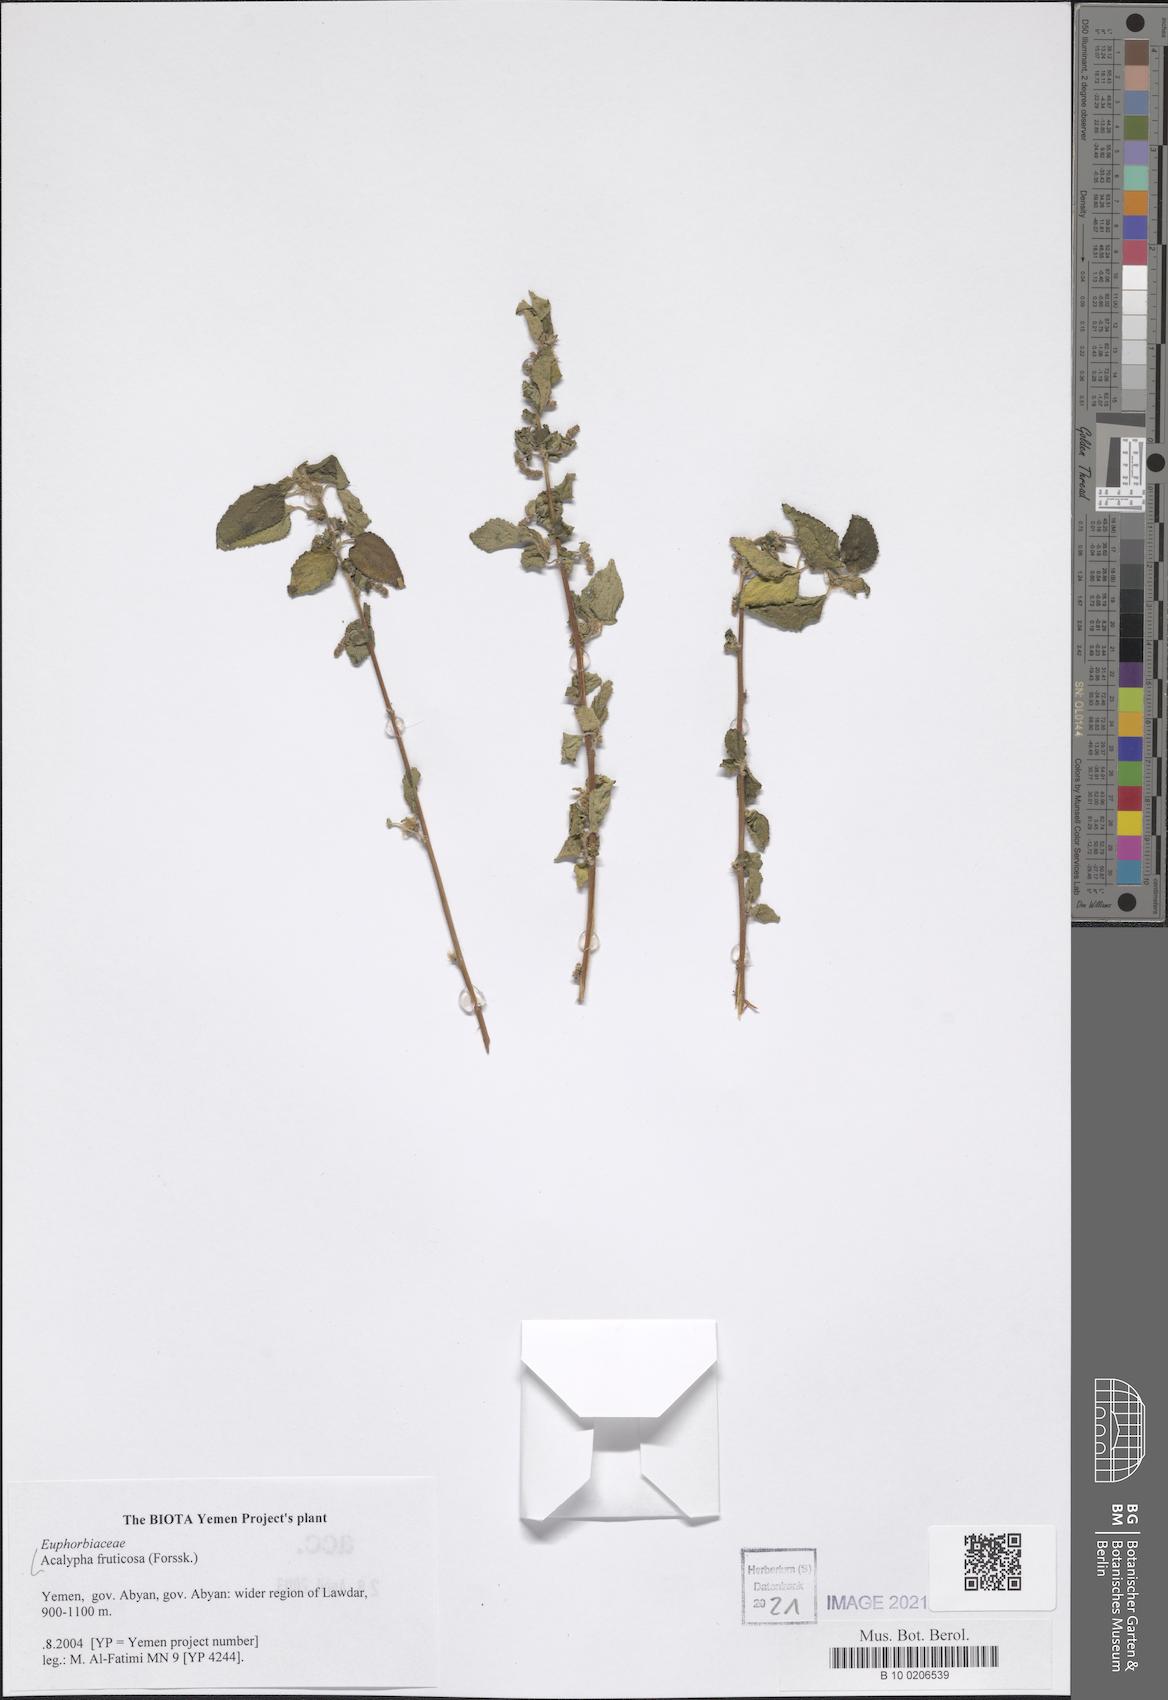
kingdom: Plantae
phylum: Tracheophyta
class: Magnoliopsida
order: Malpighiales
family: Euphorbiaceae
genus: Acalypha
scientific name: Acalypha fruticosa
